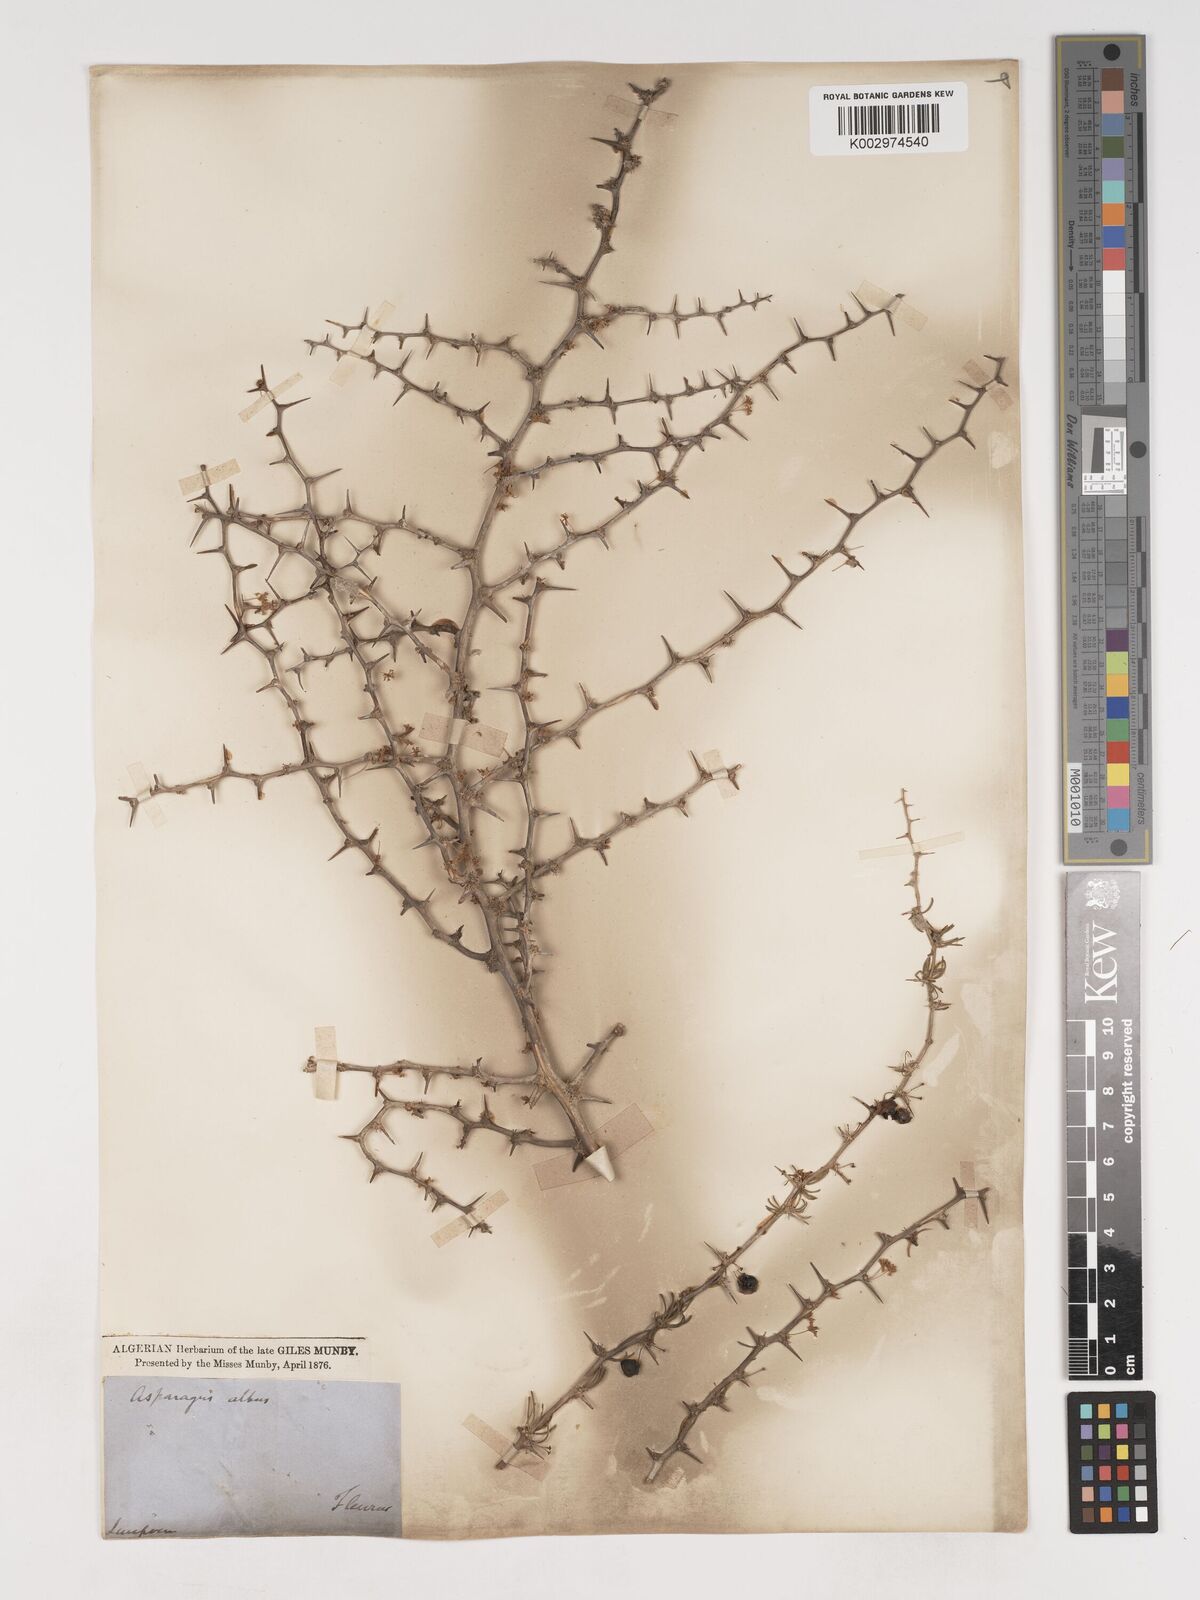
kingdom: Plantae
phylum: Tracheophyta
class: Liliopsida
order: Asparagales
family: Asparagaceae
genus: Asparagus
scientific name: Asparagus albus
